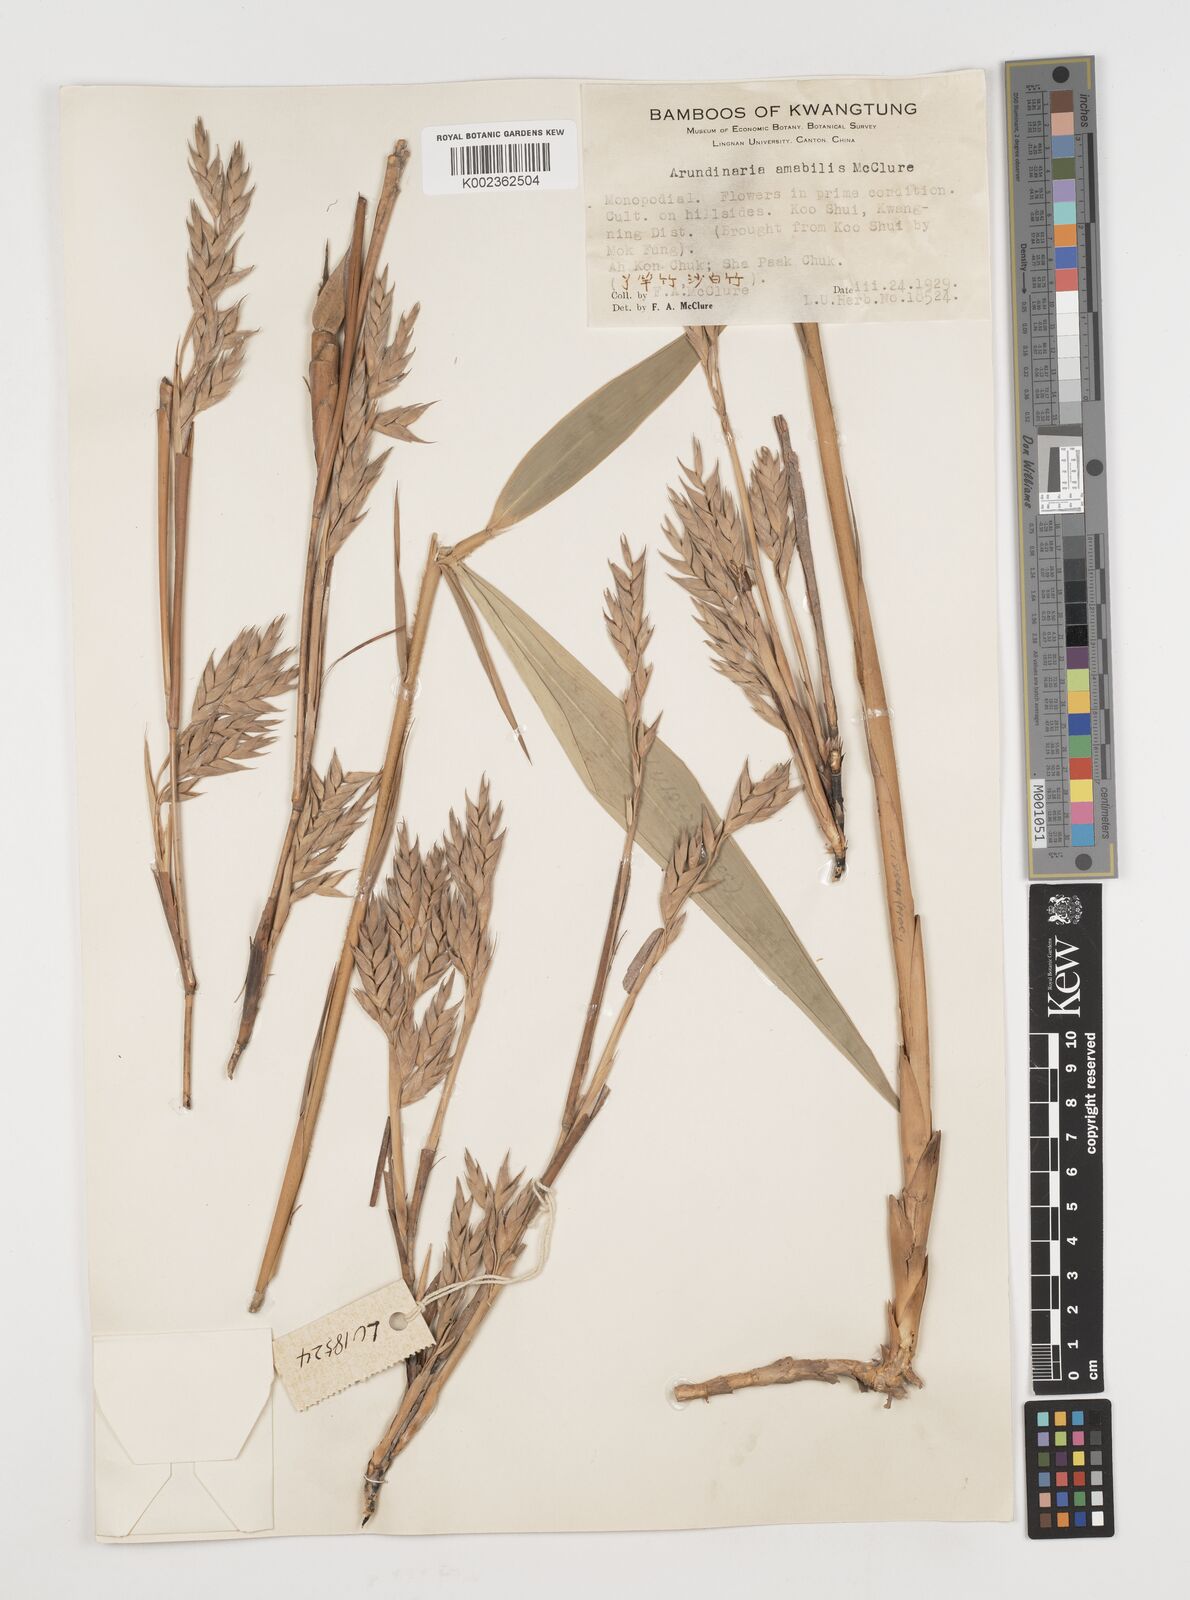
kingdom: Plantae
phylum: Tracheophyta
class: Liliopsida
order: Poales
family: Poaceae
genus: Pseudosasa
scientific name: Pseudosasa amabilis
